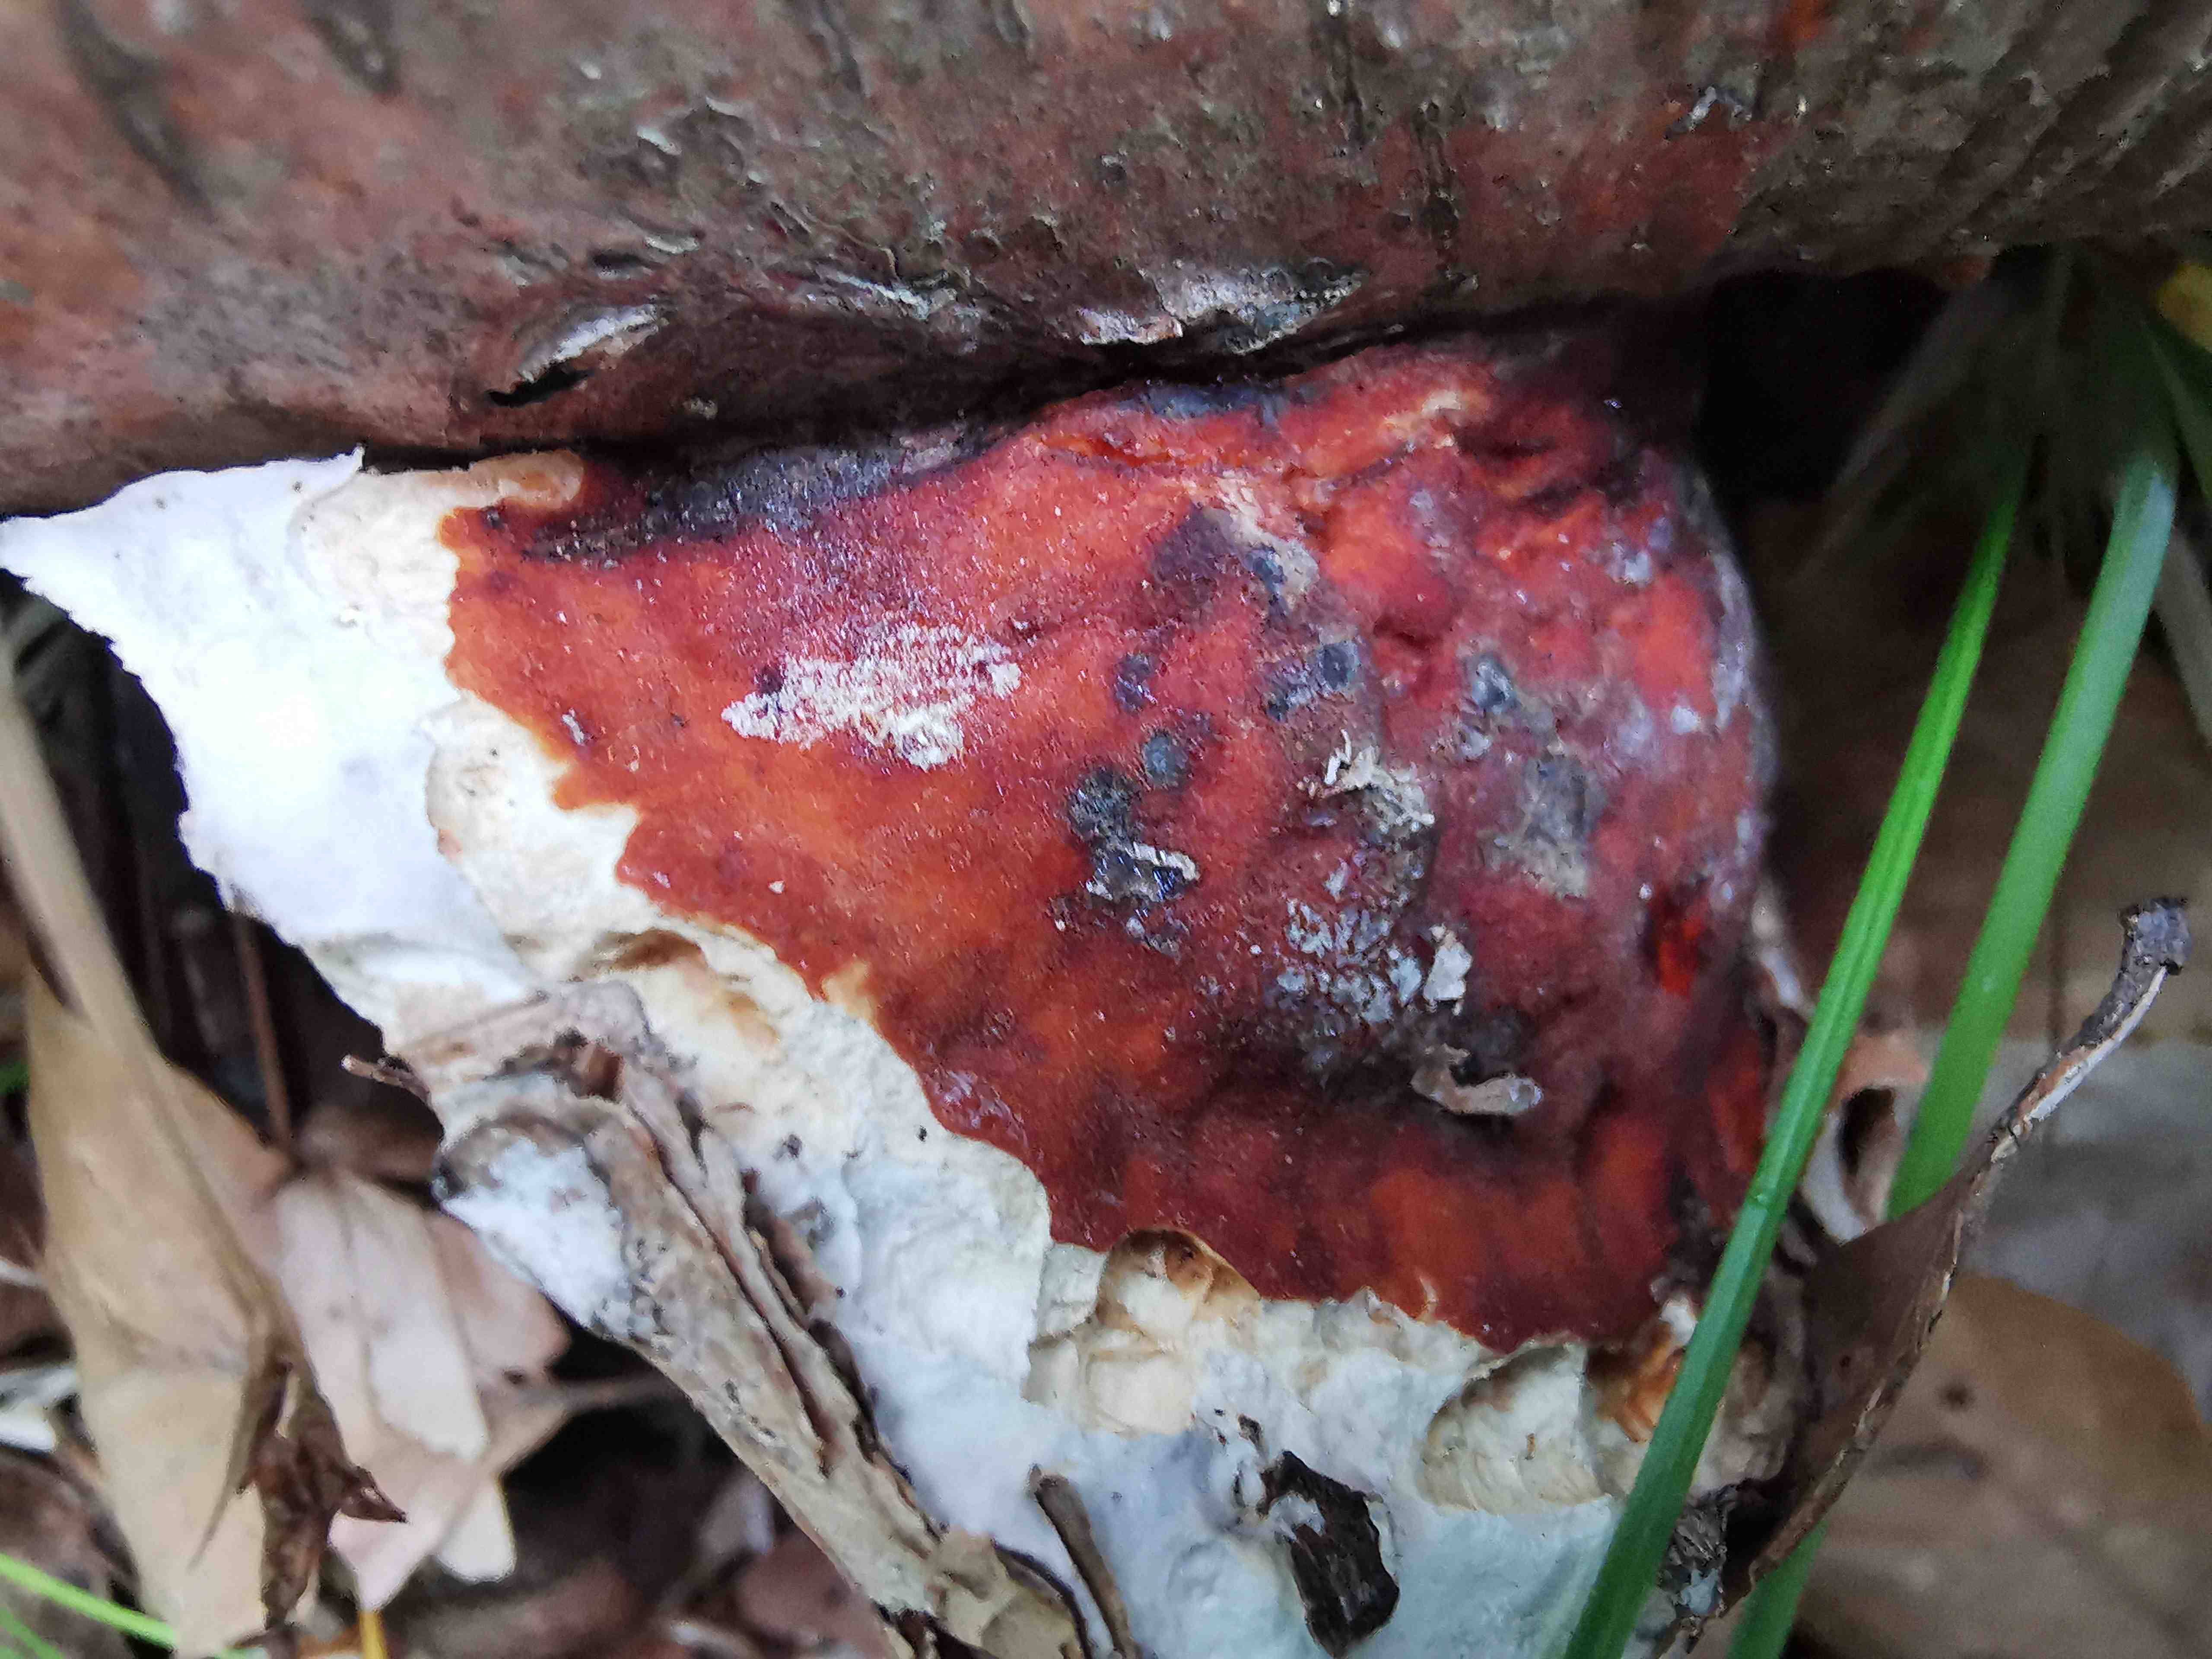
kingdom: Fungi
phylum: Basidiomycota
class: Agaricomycetes
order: Polyporales
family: Fomitopsidaceae
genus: Fomitopsis
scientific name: Fomitopsis pinicola
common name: randbæltet hovporesvamp
